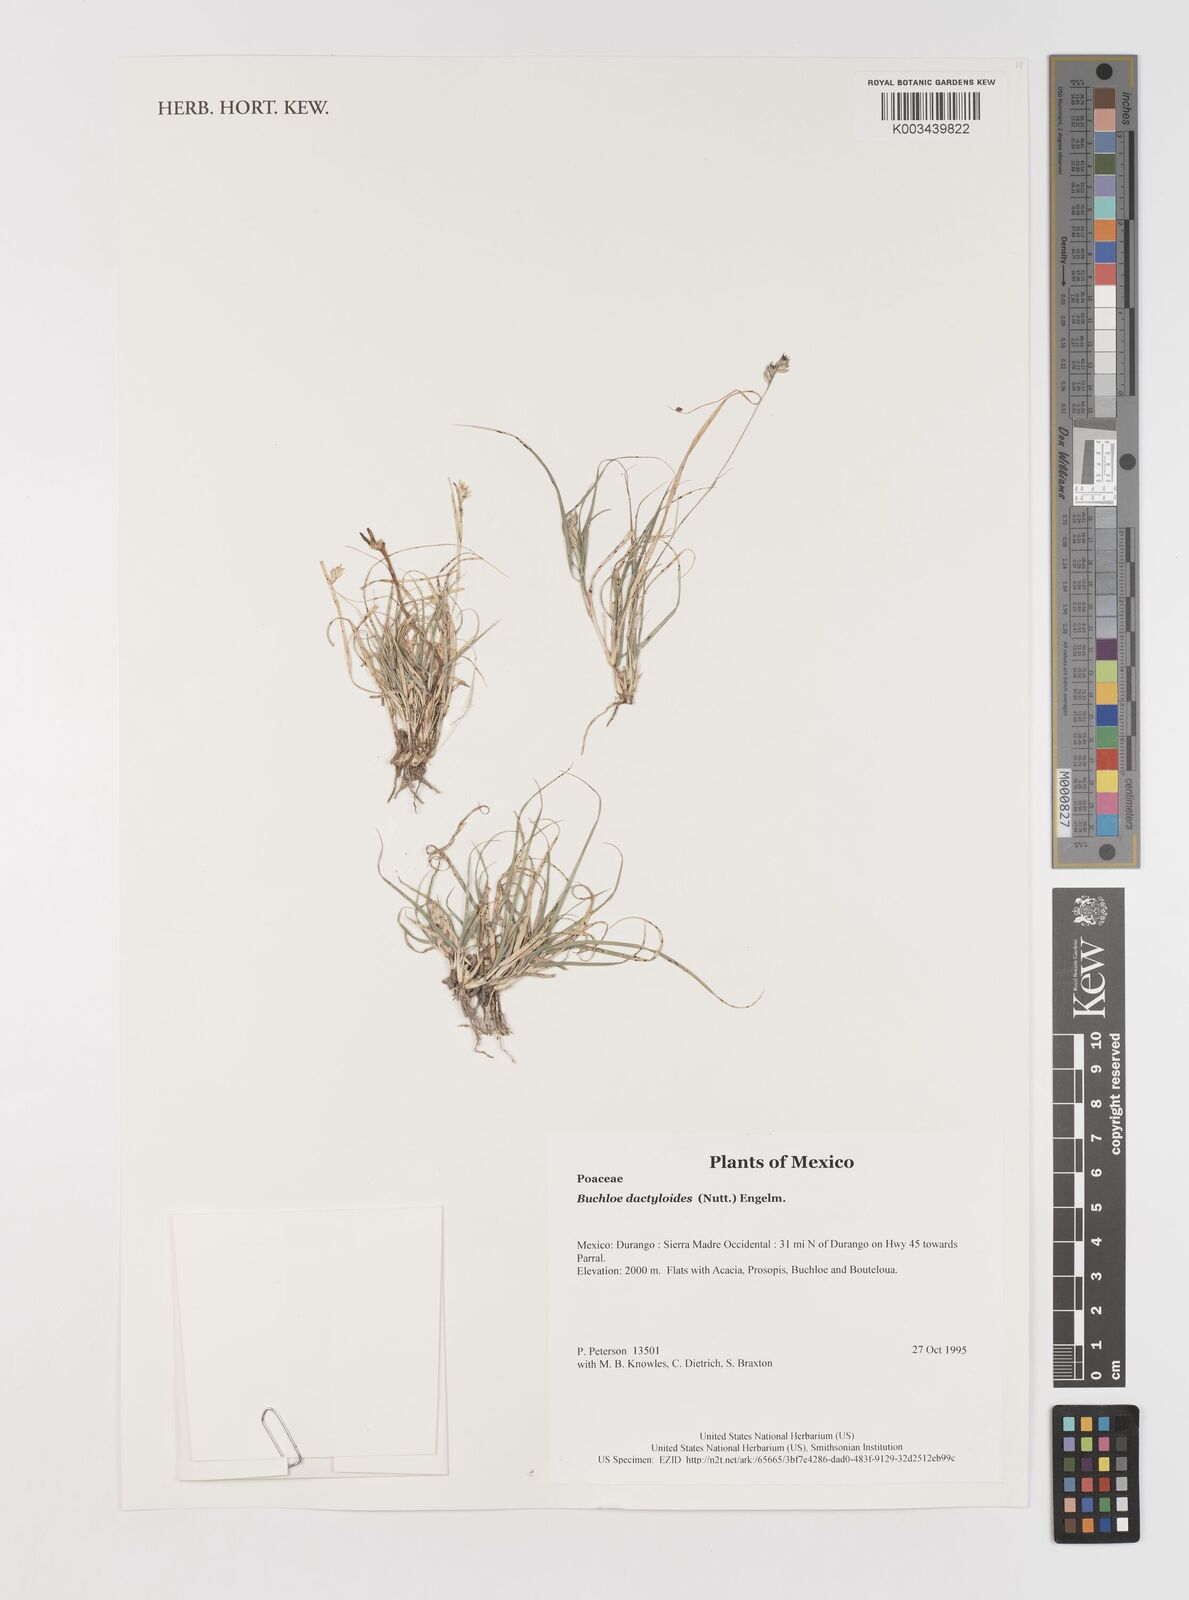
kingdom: Plantae
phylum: Tracheophyta
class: Liliopsida
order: Poales
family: Poaceae
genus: Bouteloua
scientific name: Bouteloua dactyloides
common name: Buffalo grass
